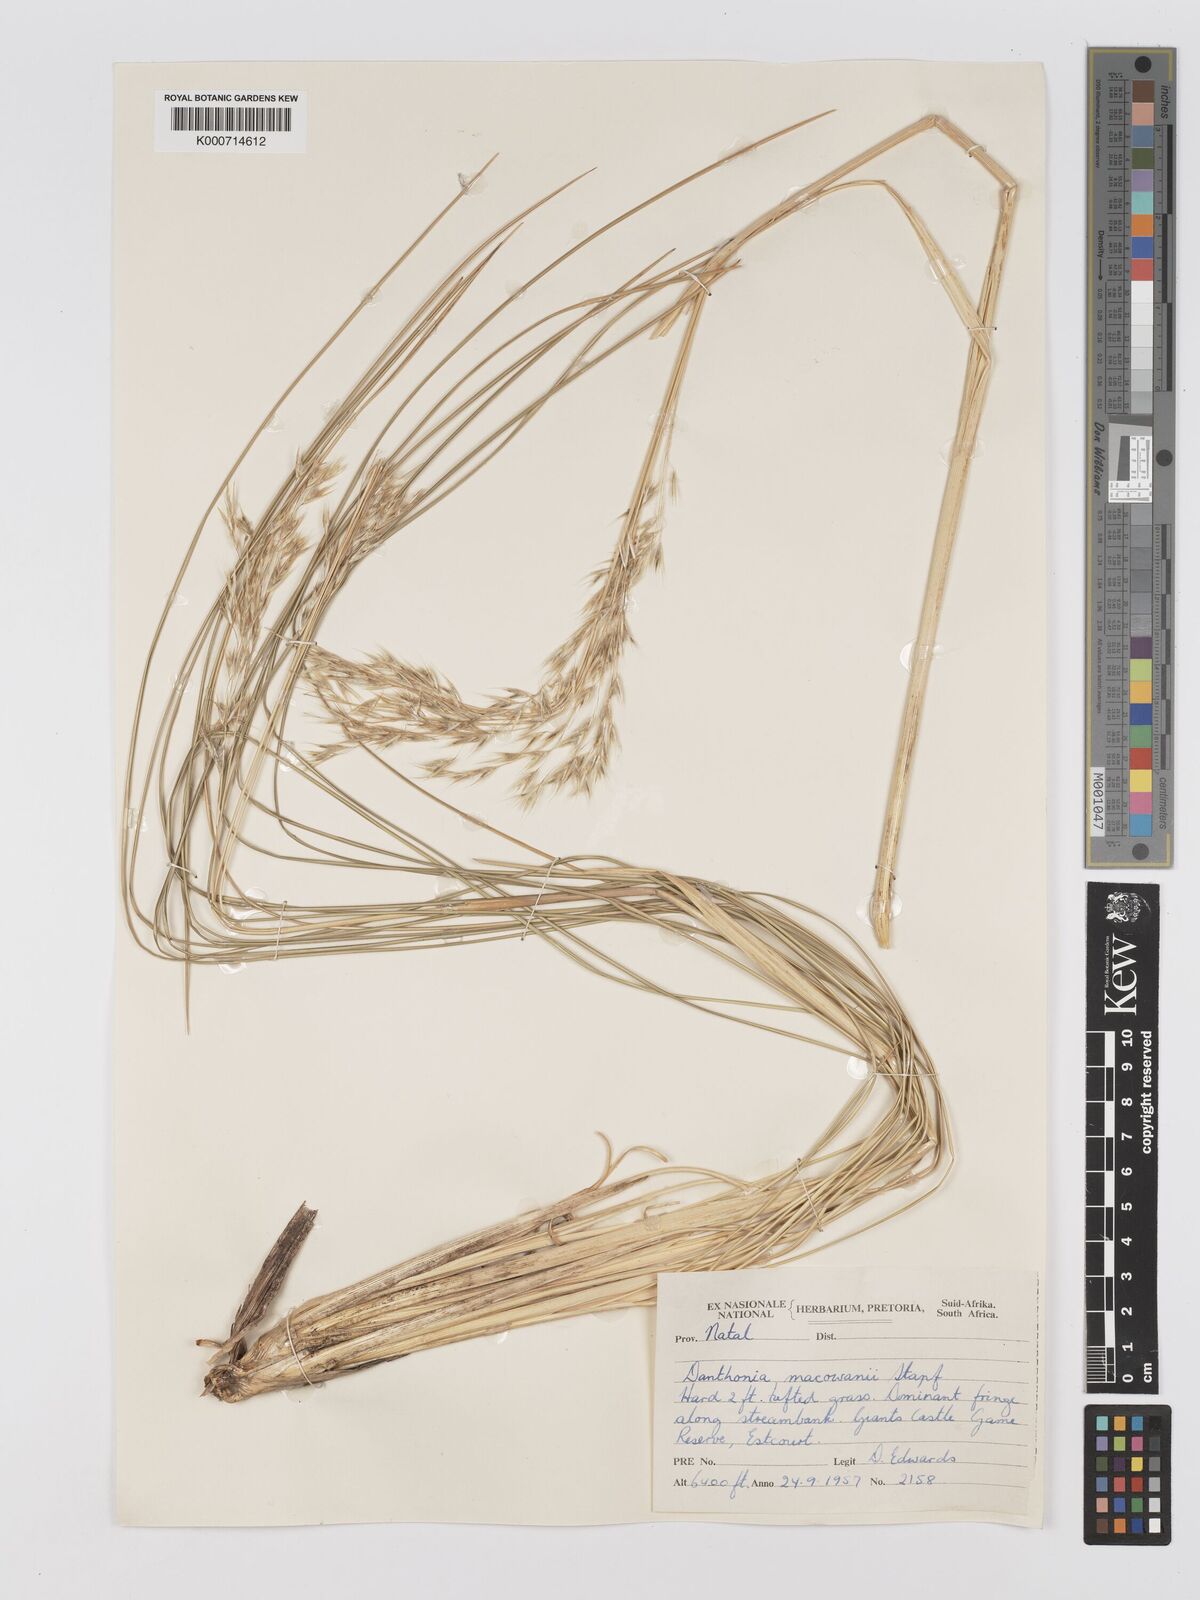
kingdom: Plantae
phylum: Tracheophyta
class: Liliopsida
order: Poales
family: Poaceae
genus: Rytidosperma
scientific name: Rytidosperma
